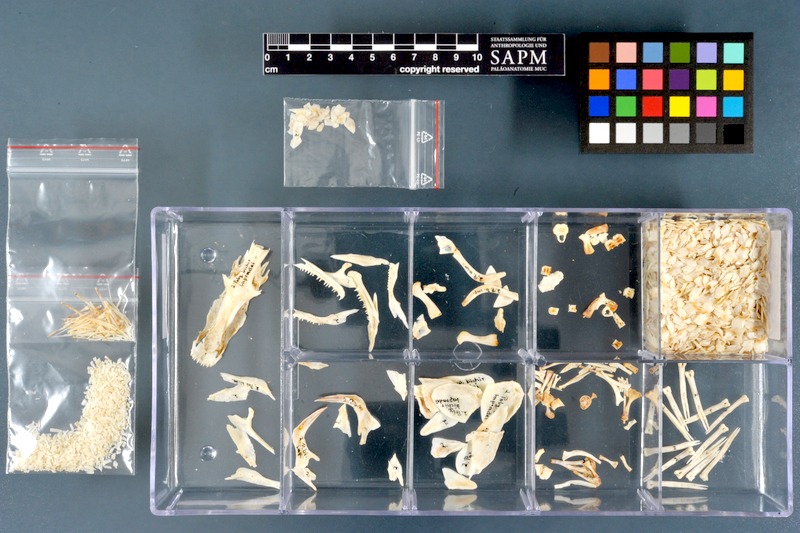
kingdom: Animalia
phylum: Chordata
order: Polypteriformes
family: Polypteridae
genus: Polypterus
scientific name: Polypterus bichir
